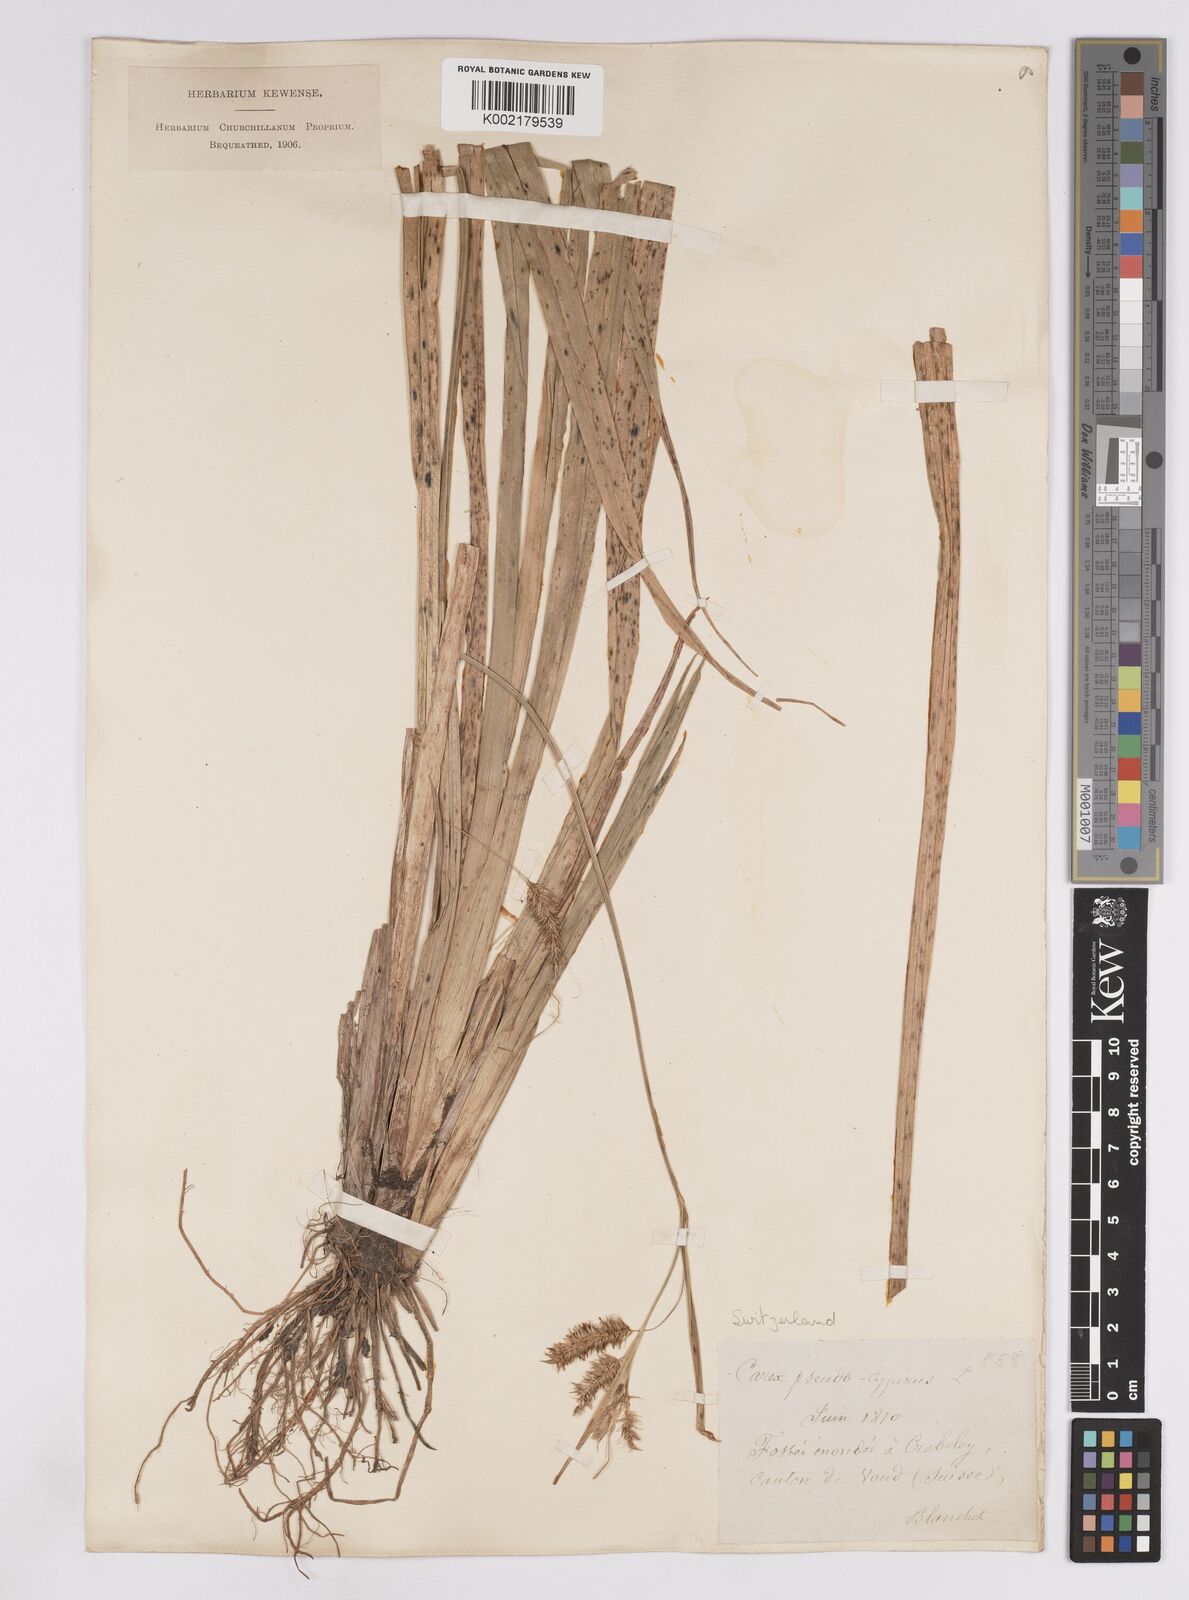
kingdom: Plantae
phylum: Tracheophyta
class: Liliopsida
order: Poales
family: Cyperaceae
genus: Carex
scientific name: Carex pseudocyperus
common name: Cyperus sedge
